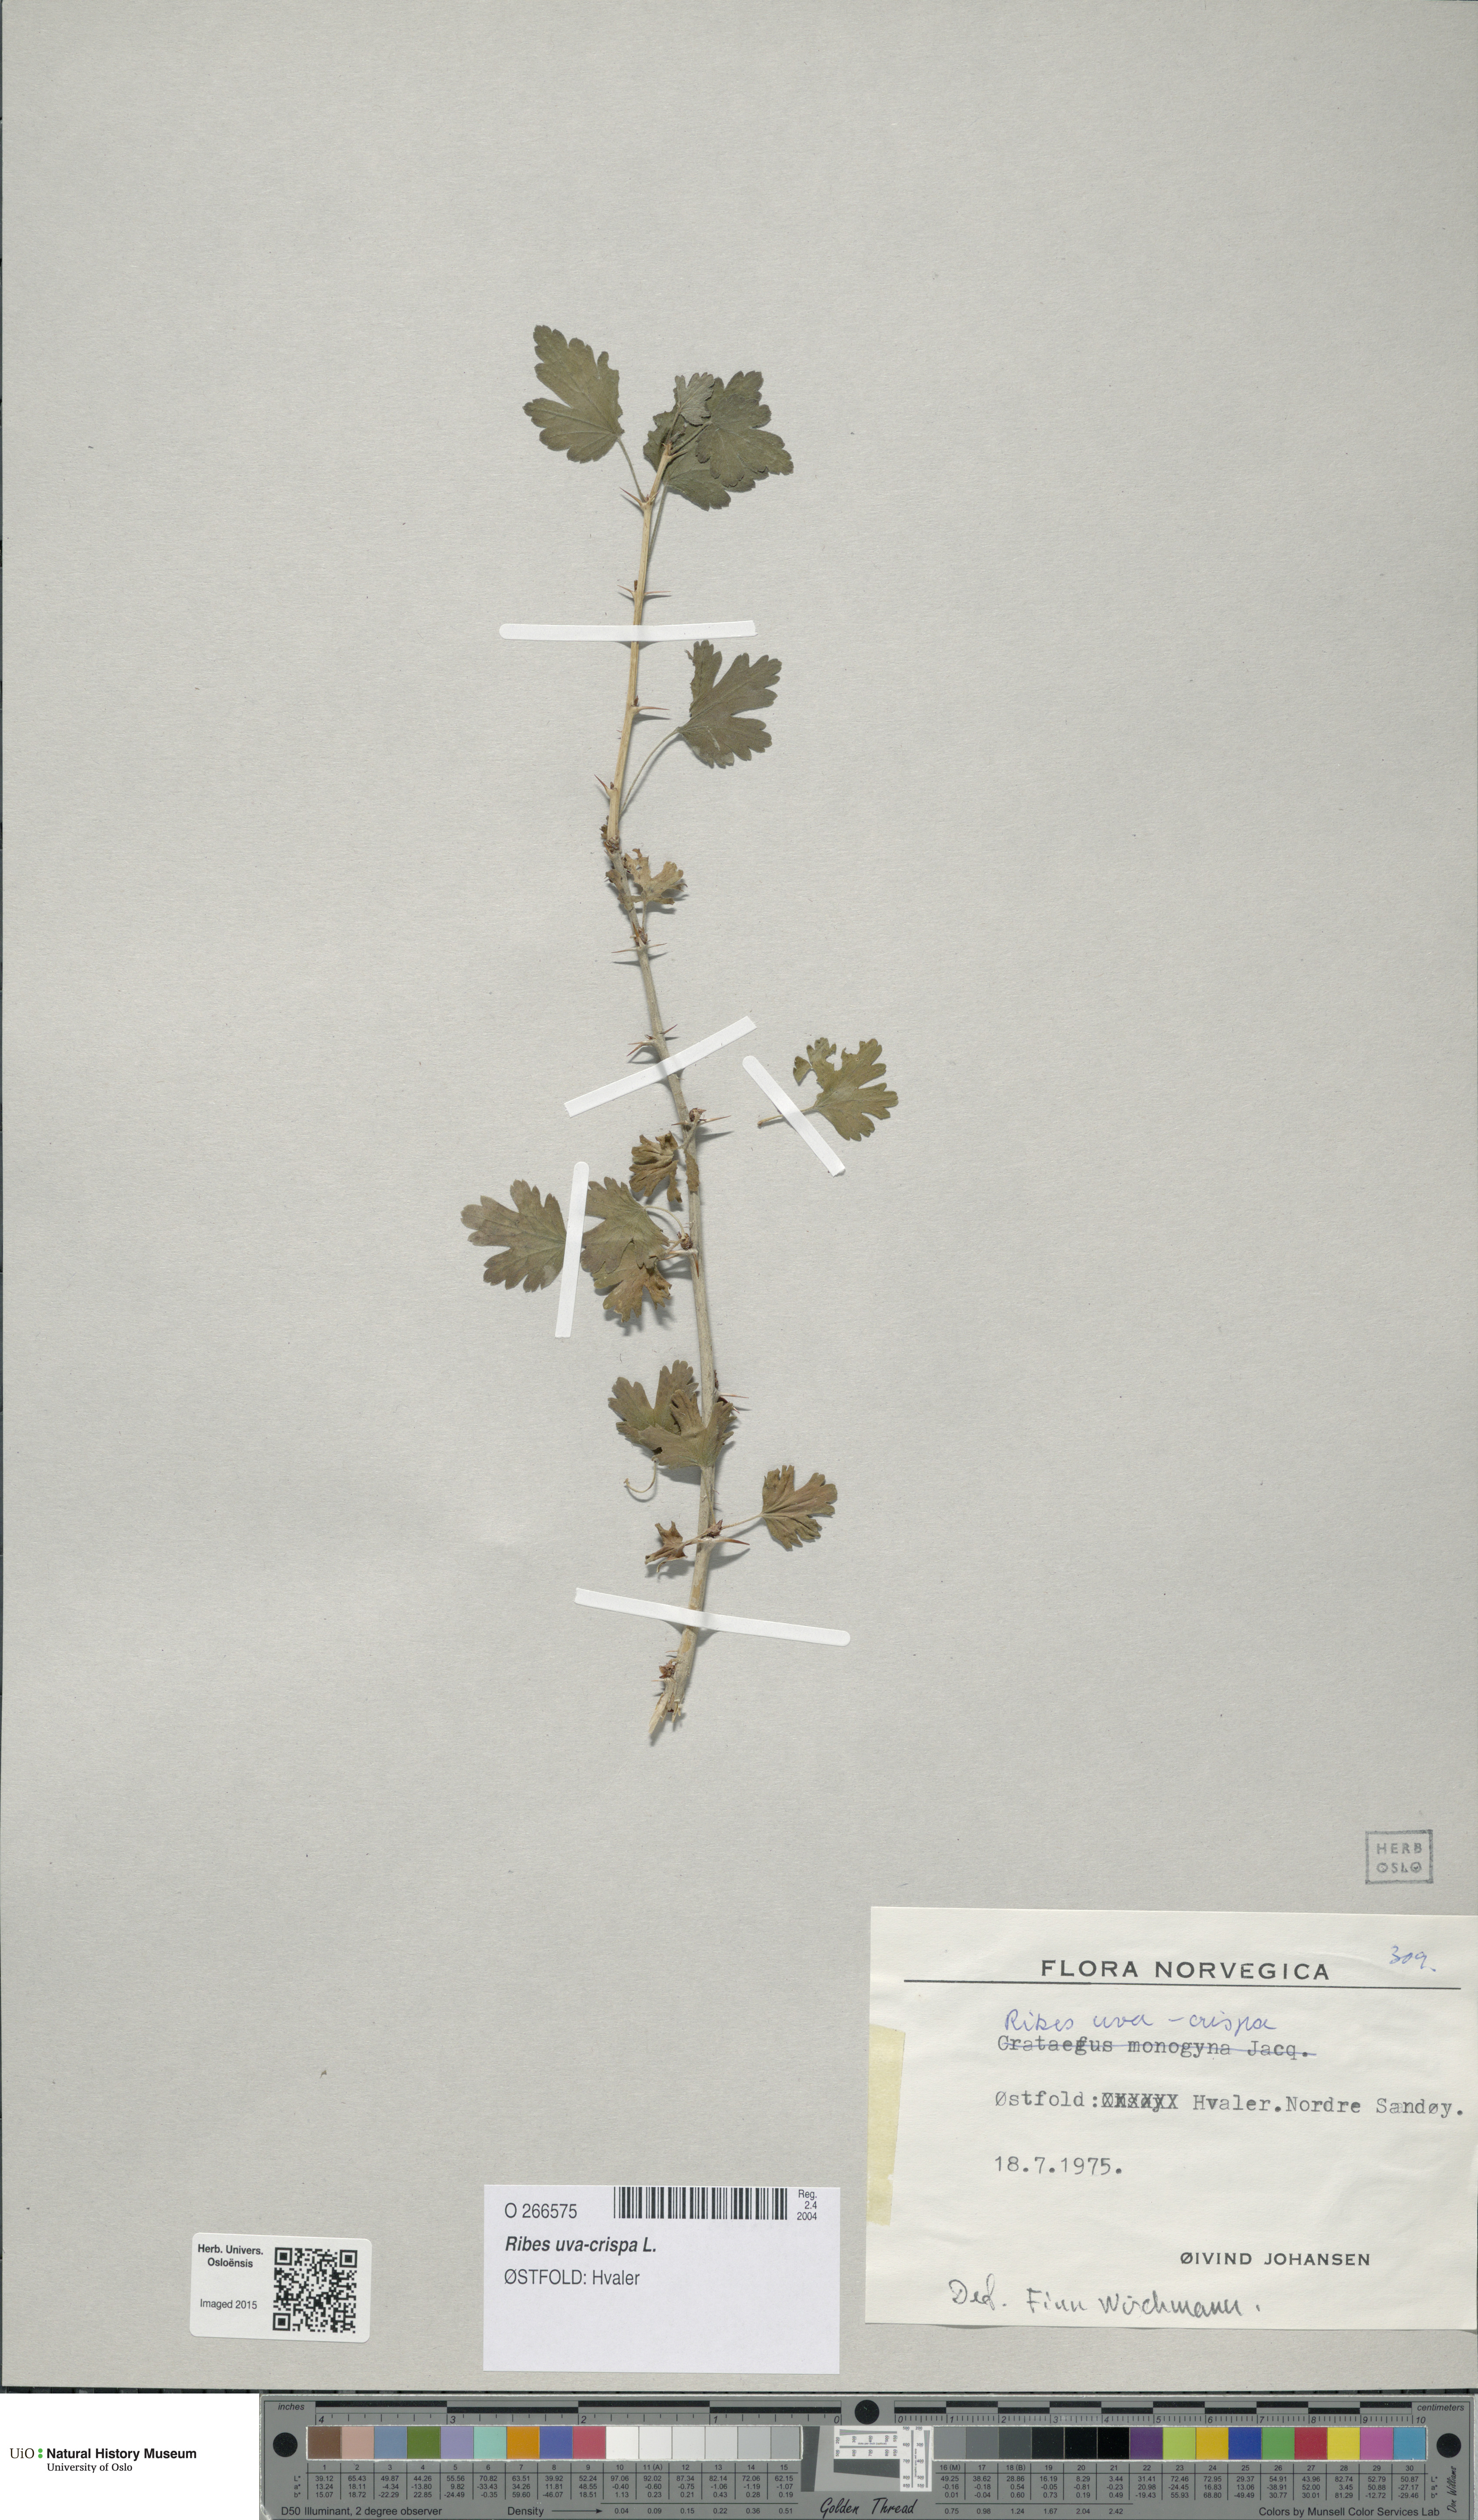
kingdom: Plantae
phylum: Tracheophyta
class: Magnoliopsida
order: Saxifragales
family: Grossulariaceae
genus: Ribes
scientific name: Ribes uva-crispa
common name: Gooseberry
